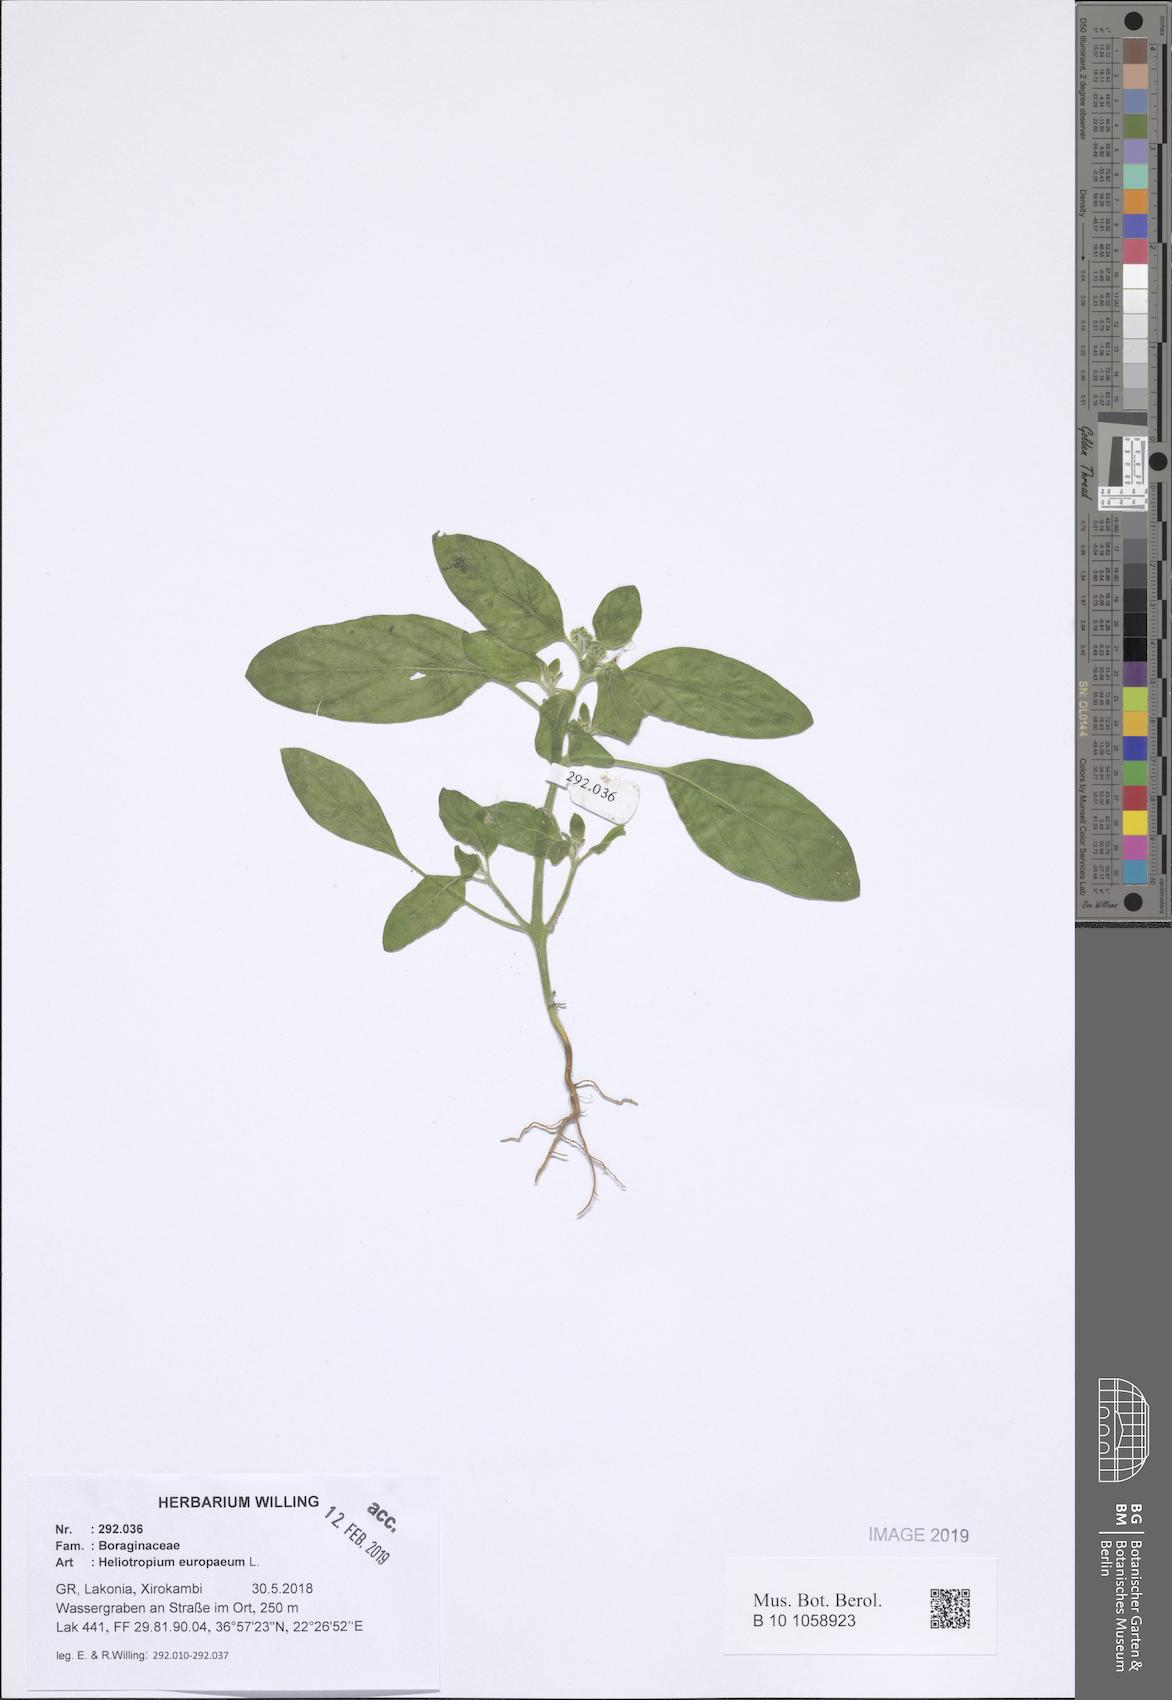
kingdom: Plantae
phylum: Tracheophyta
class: Magnoliopsida
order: Boraginales
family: Heliotropiaceae
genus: Heliotropium
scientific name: Heliotropium europaeum
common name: European heliotrope
